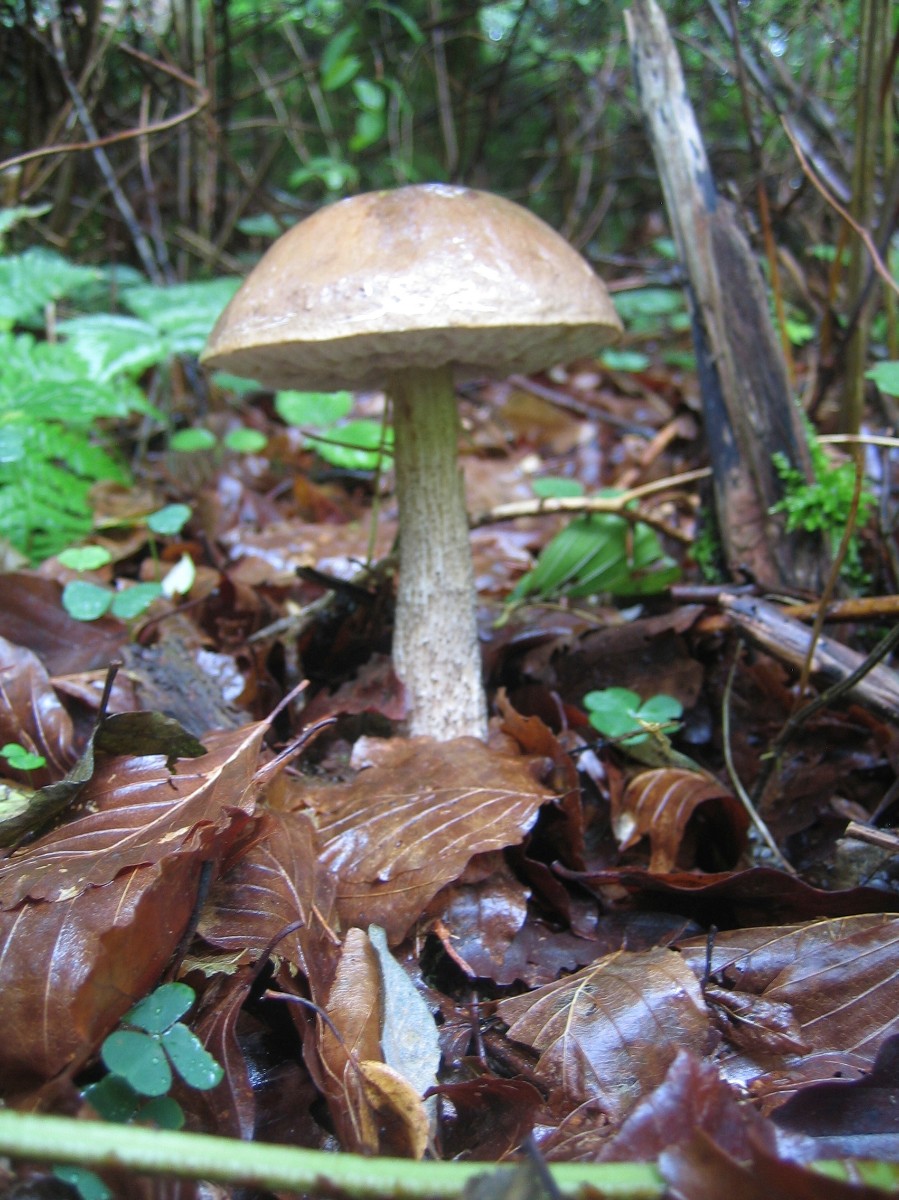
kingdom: Fungi
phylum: Basidiomycota
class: Agaricomycetes
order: Boletales
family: Boletaceae
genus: Leccinum
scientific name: Leccinum scabrum
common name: brun skælrørhat
